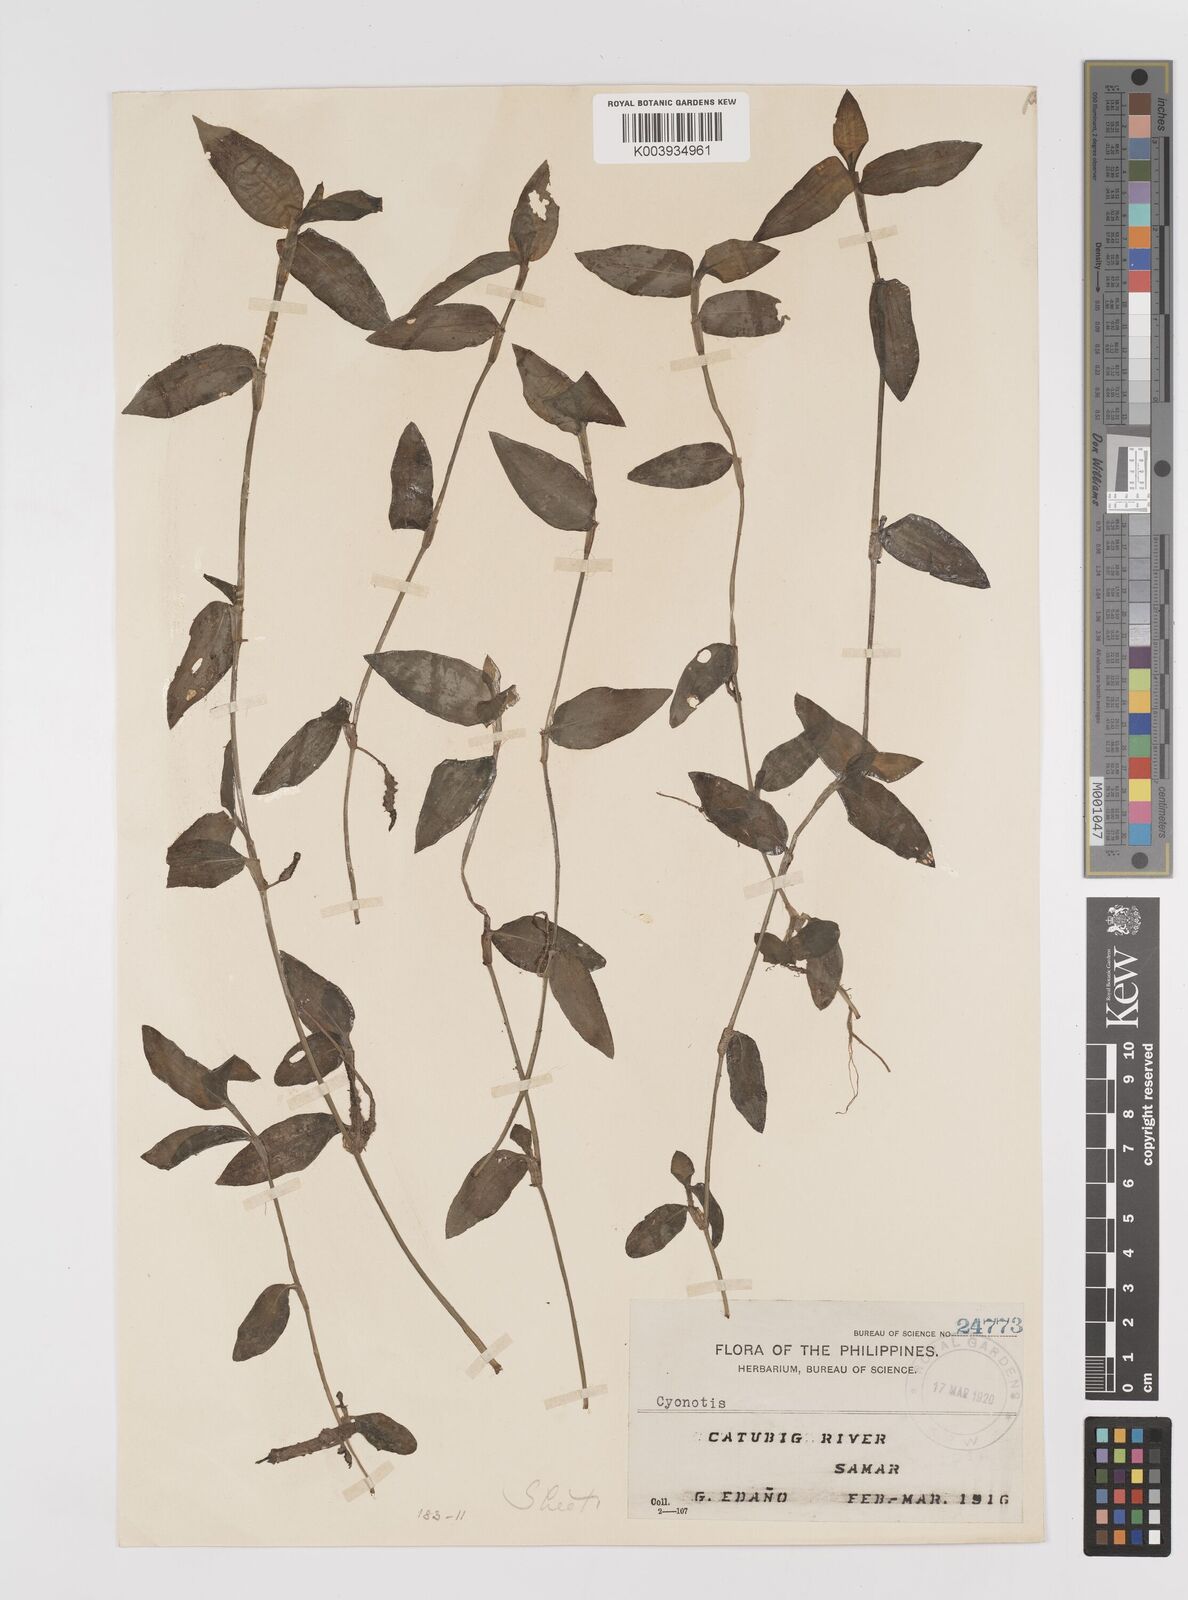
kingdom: Plantae
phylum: Tracheophyta
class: Liliopsida
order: Commelinales
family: Commelinaceae
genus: Cyanotis
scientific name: Cyanotis
